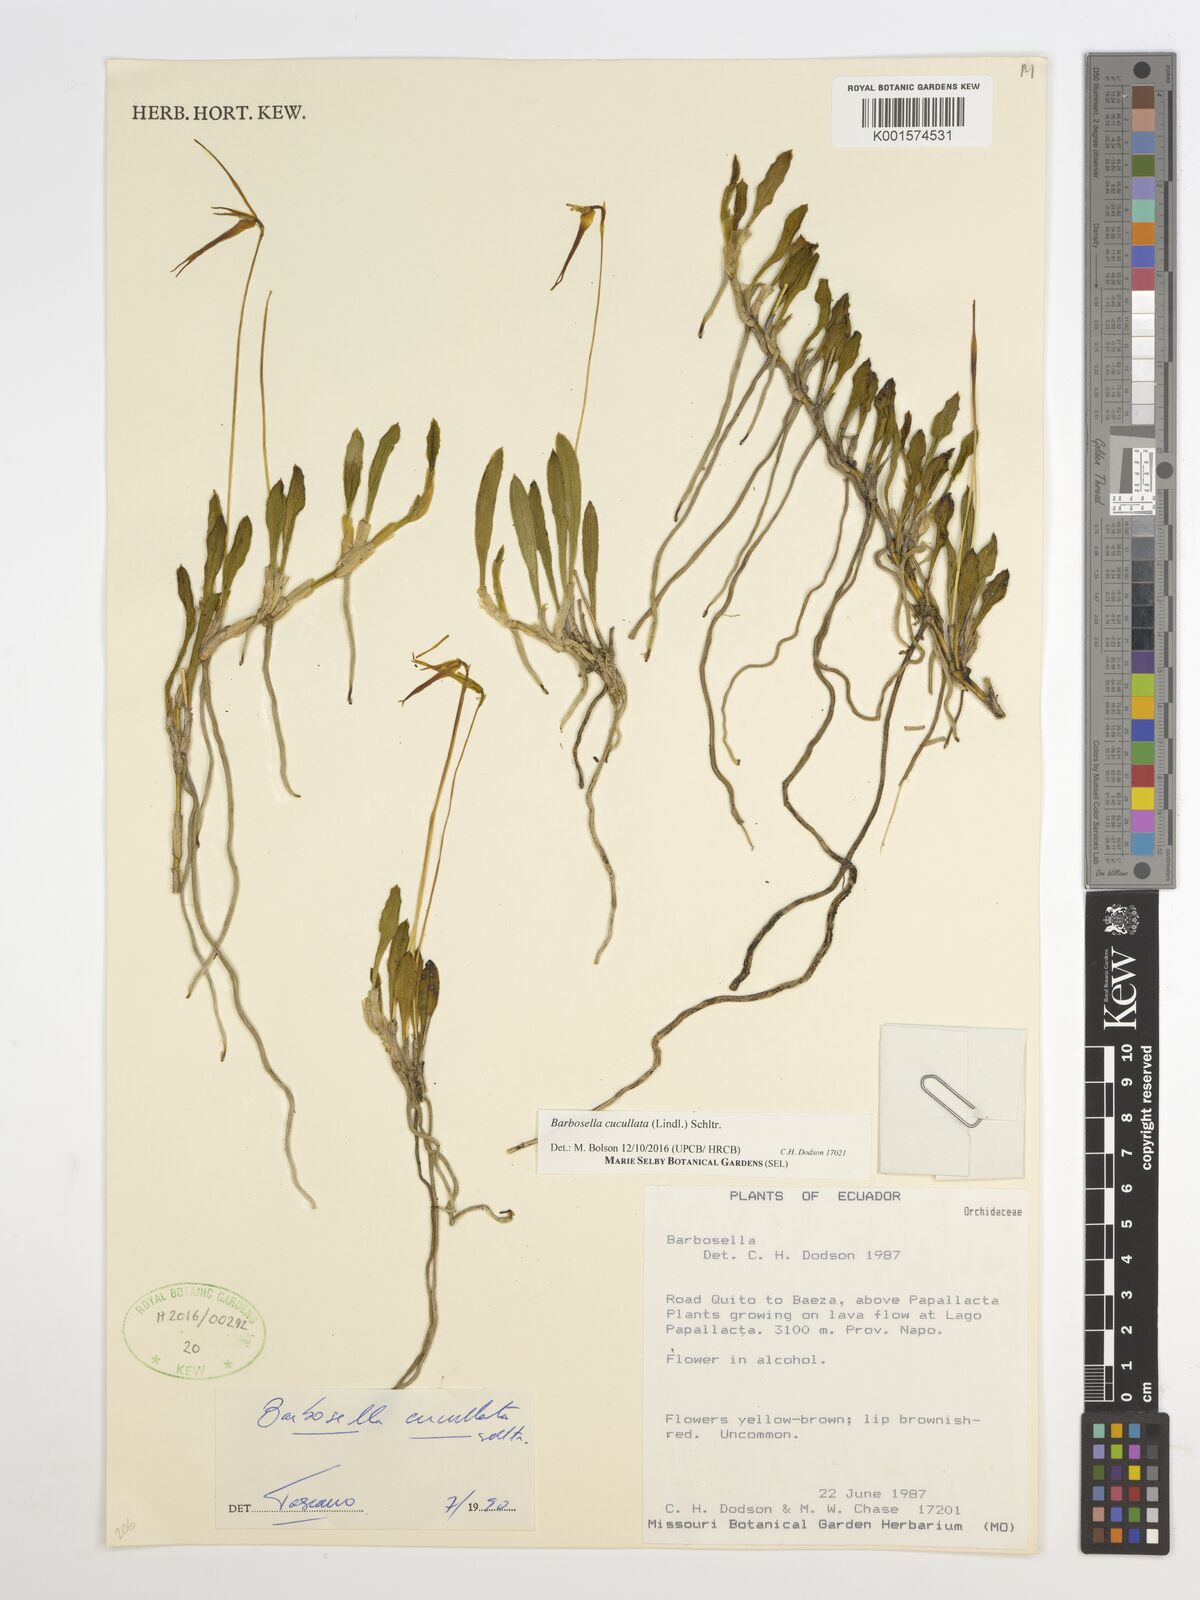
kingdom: Plantae
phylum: Tracheophyta
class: Liliopsida
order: Asparagales
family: Orchidaceae
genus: Barbosella
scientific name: Barbosella cucullata
